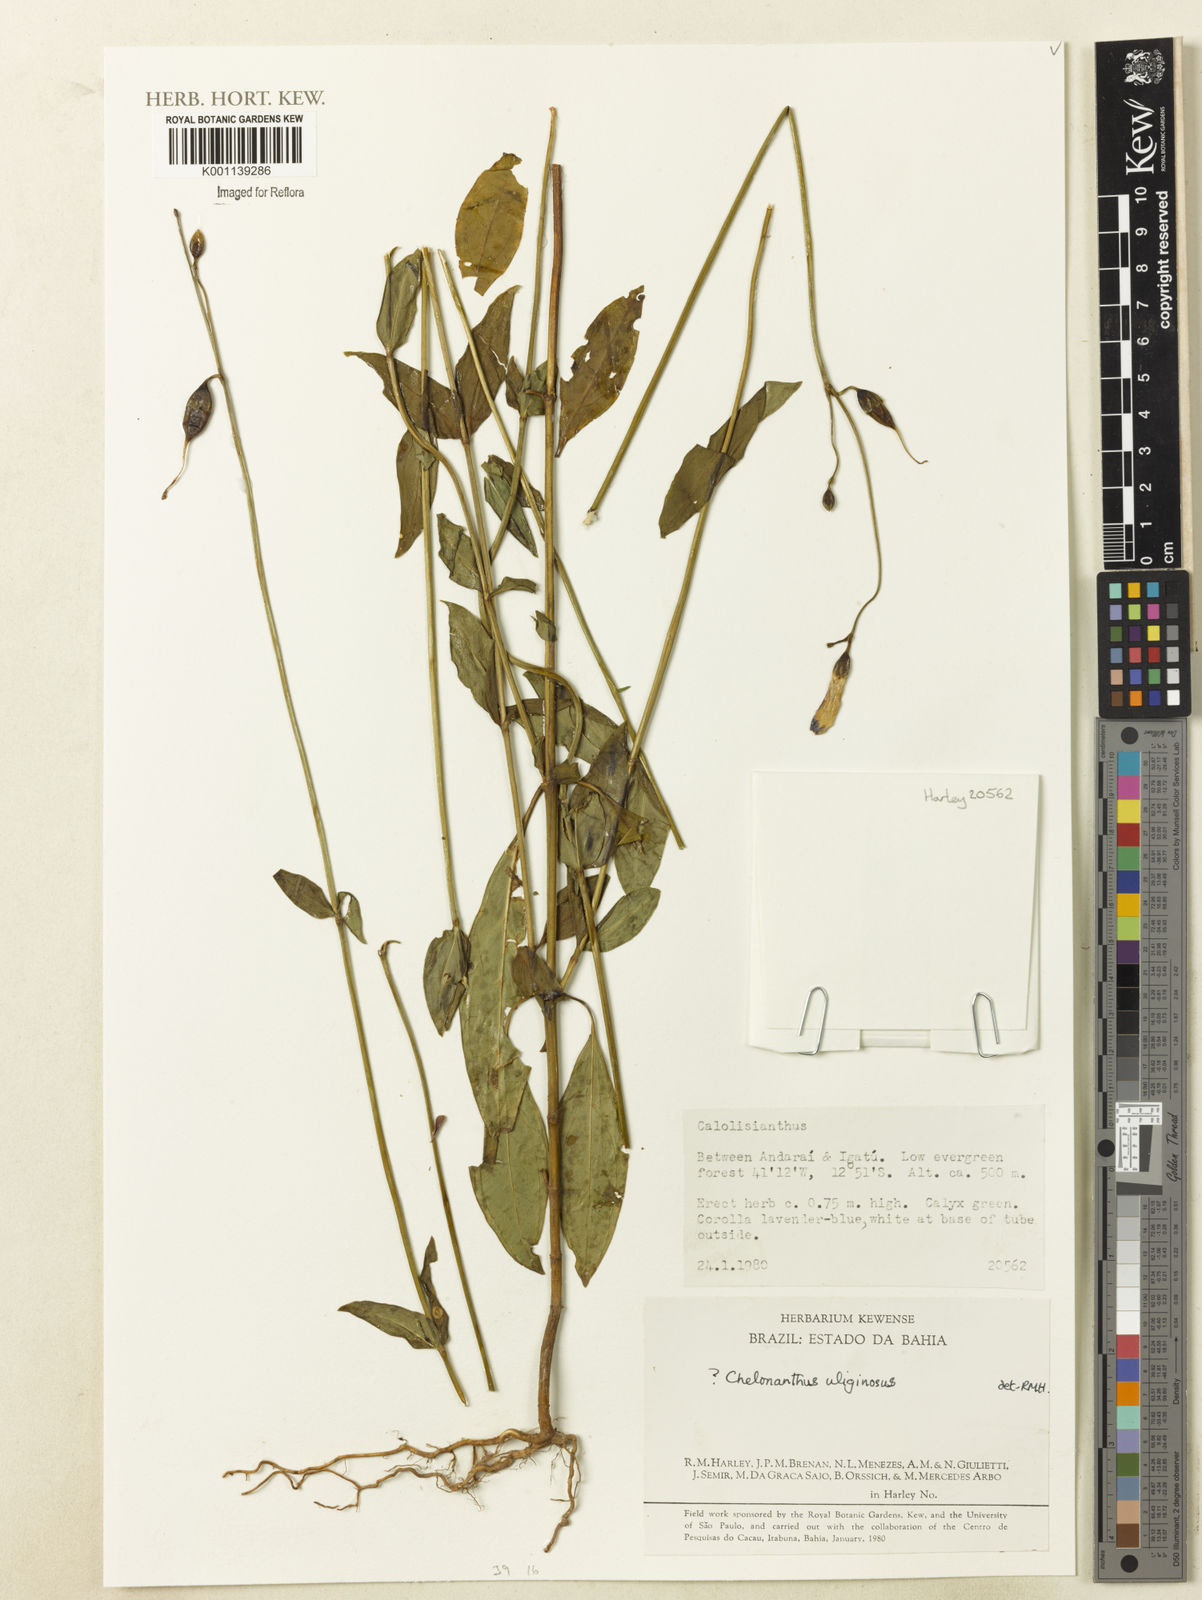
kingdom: Plantae
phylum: Tracheophyta
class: Magnoliopsida
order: Gentianales
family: Gentianaceae
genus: Chelonanthus
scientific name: Chelonanthus purpurascens
